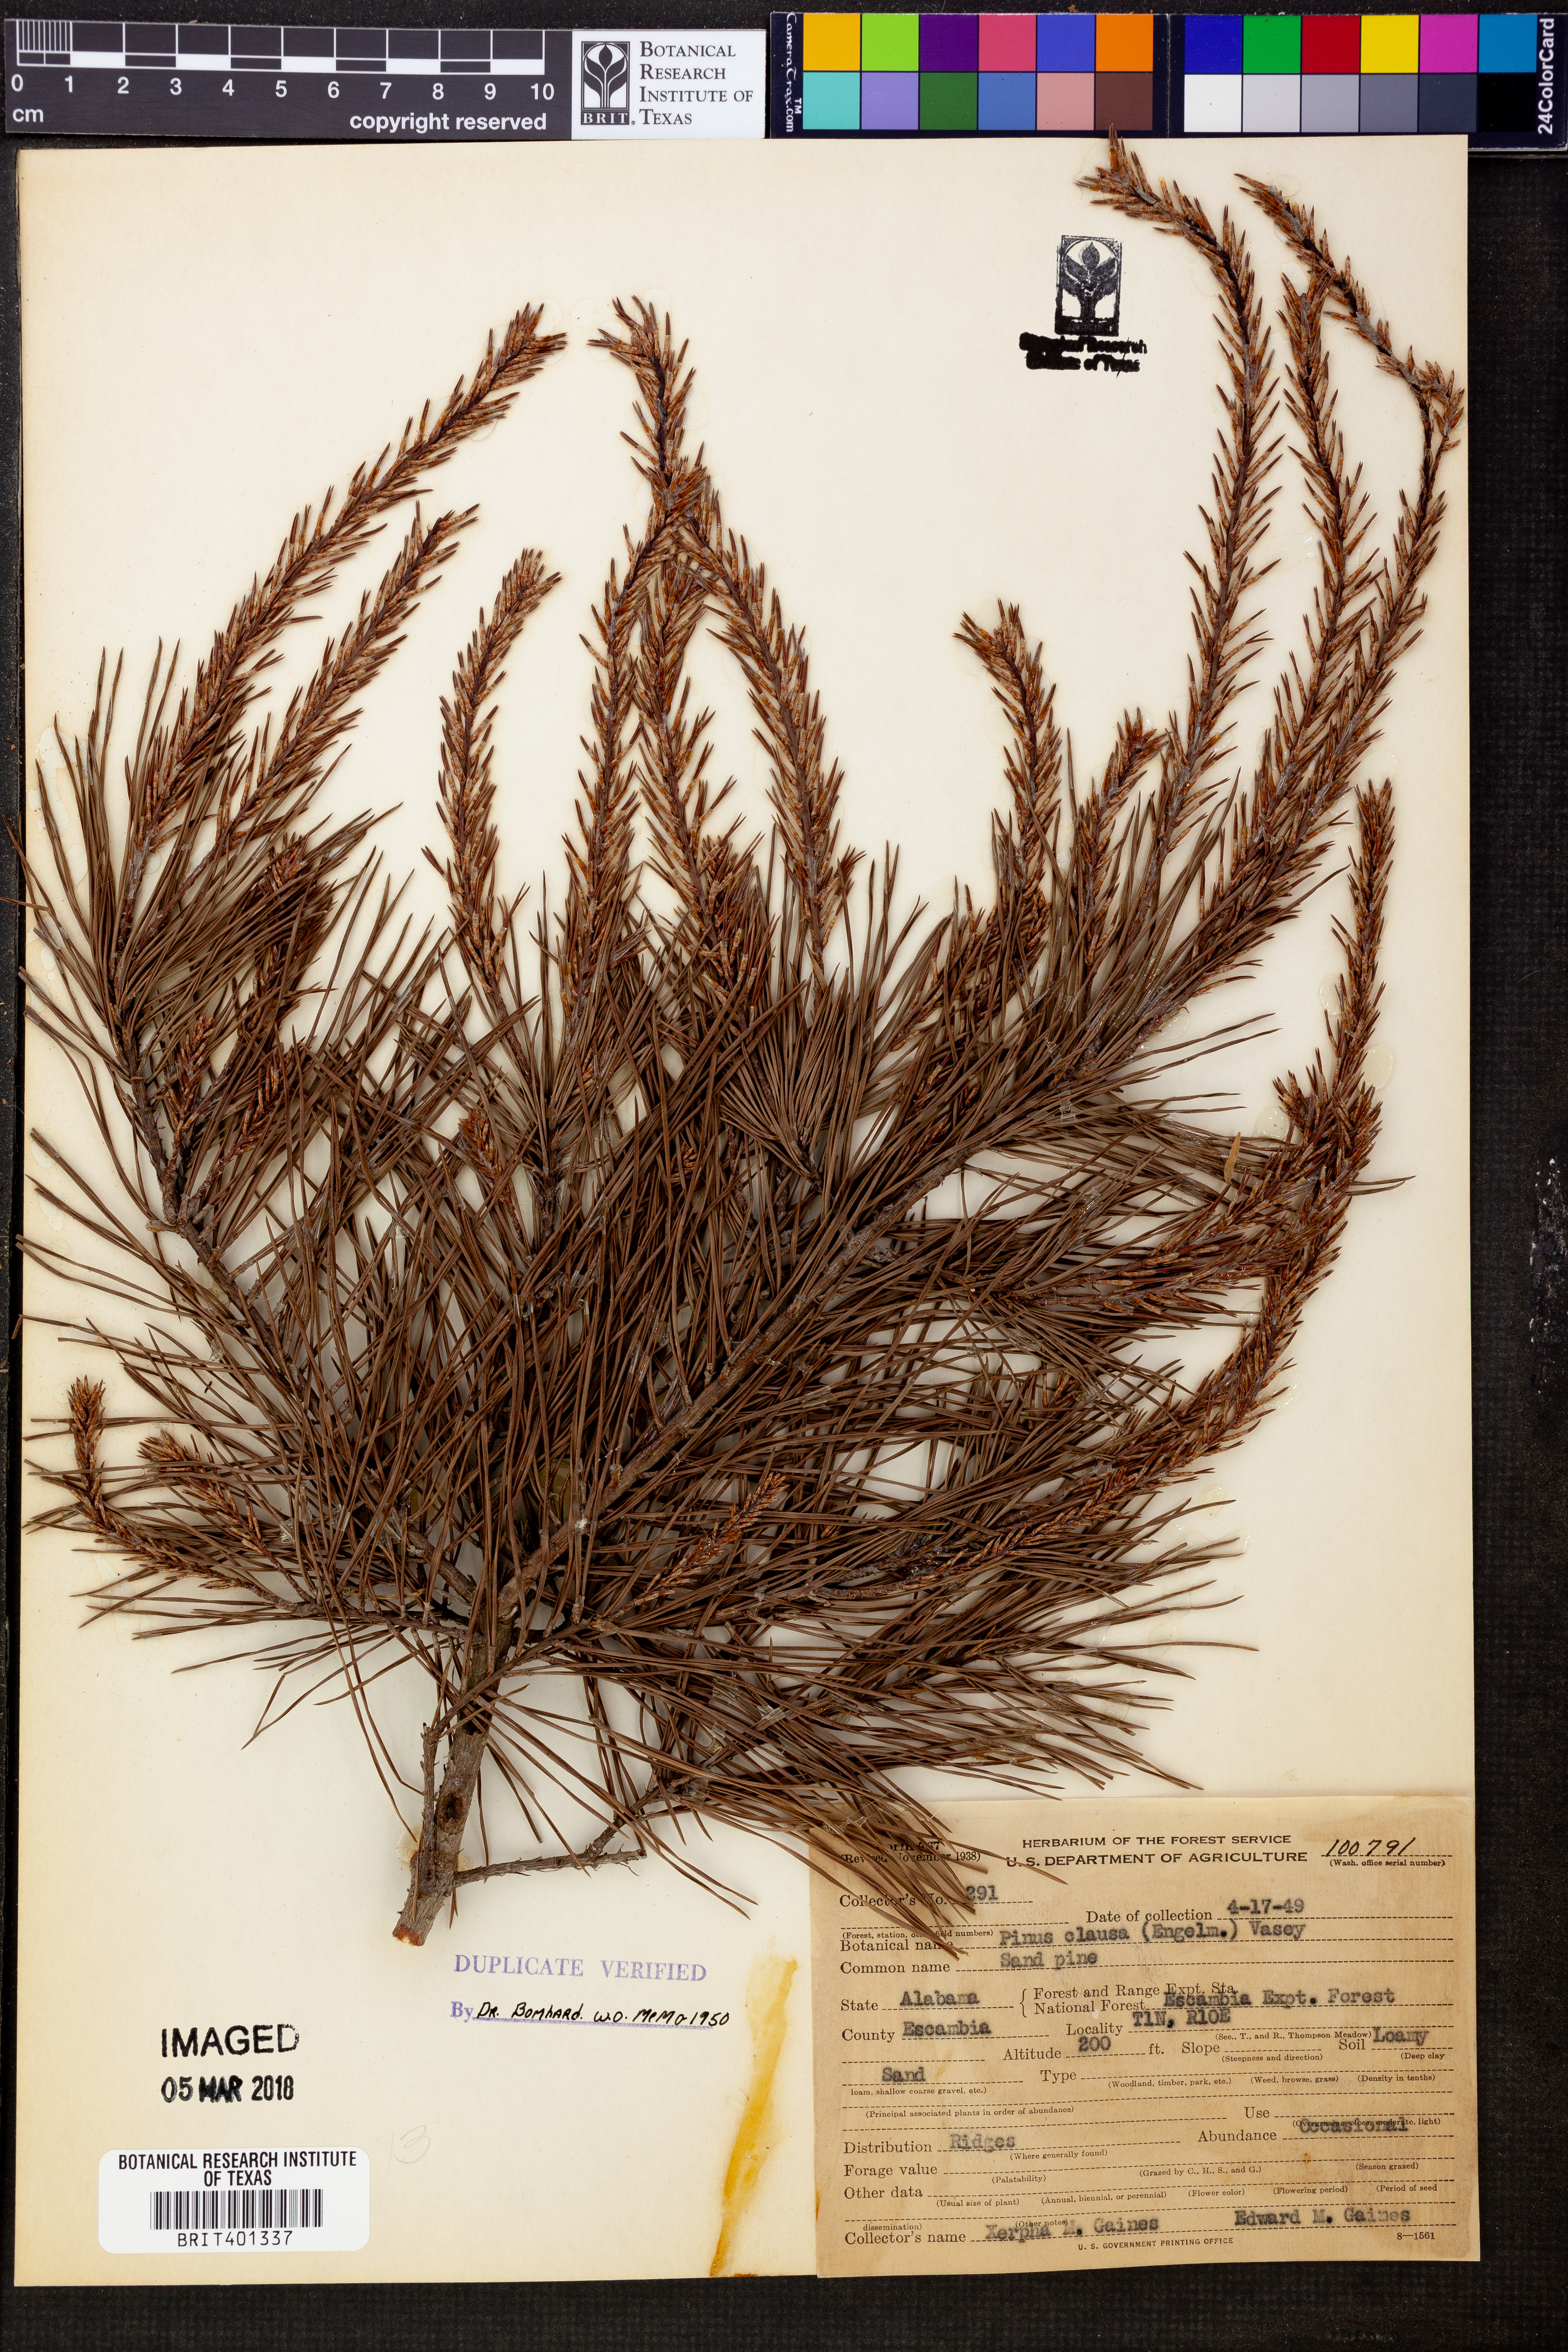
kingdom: Plantae
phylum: Tracheophyta
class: Pinopsida
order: Pinales
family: Pinaceae
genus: Pinus
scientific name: Pinus clausa
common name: Sand pine
